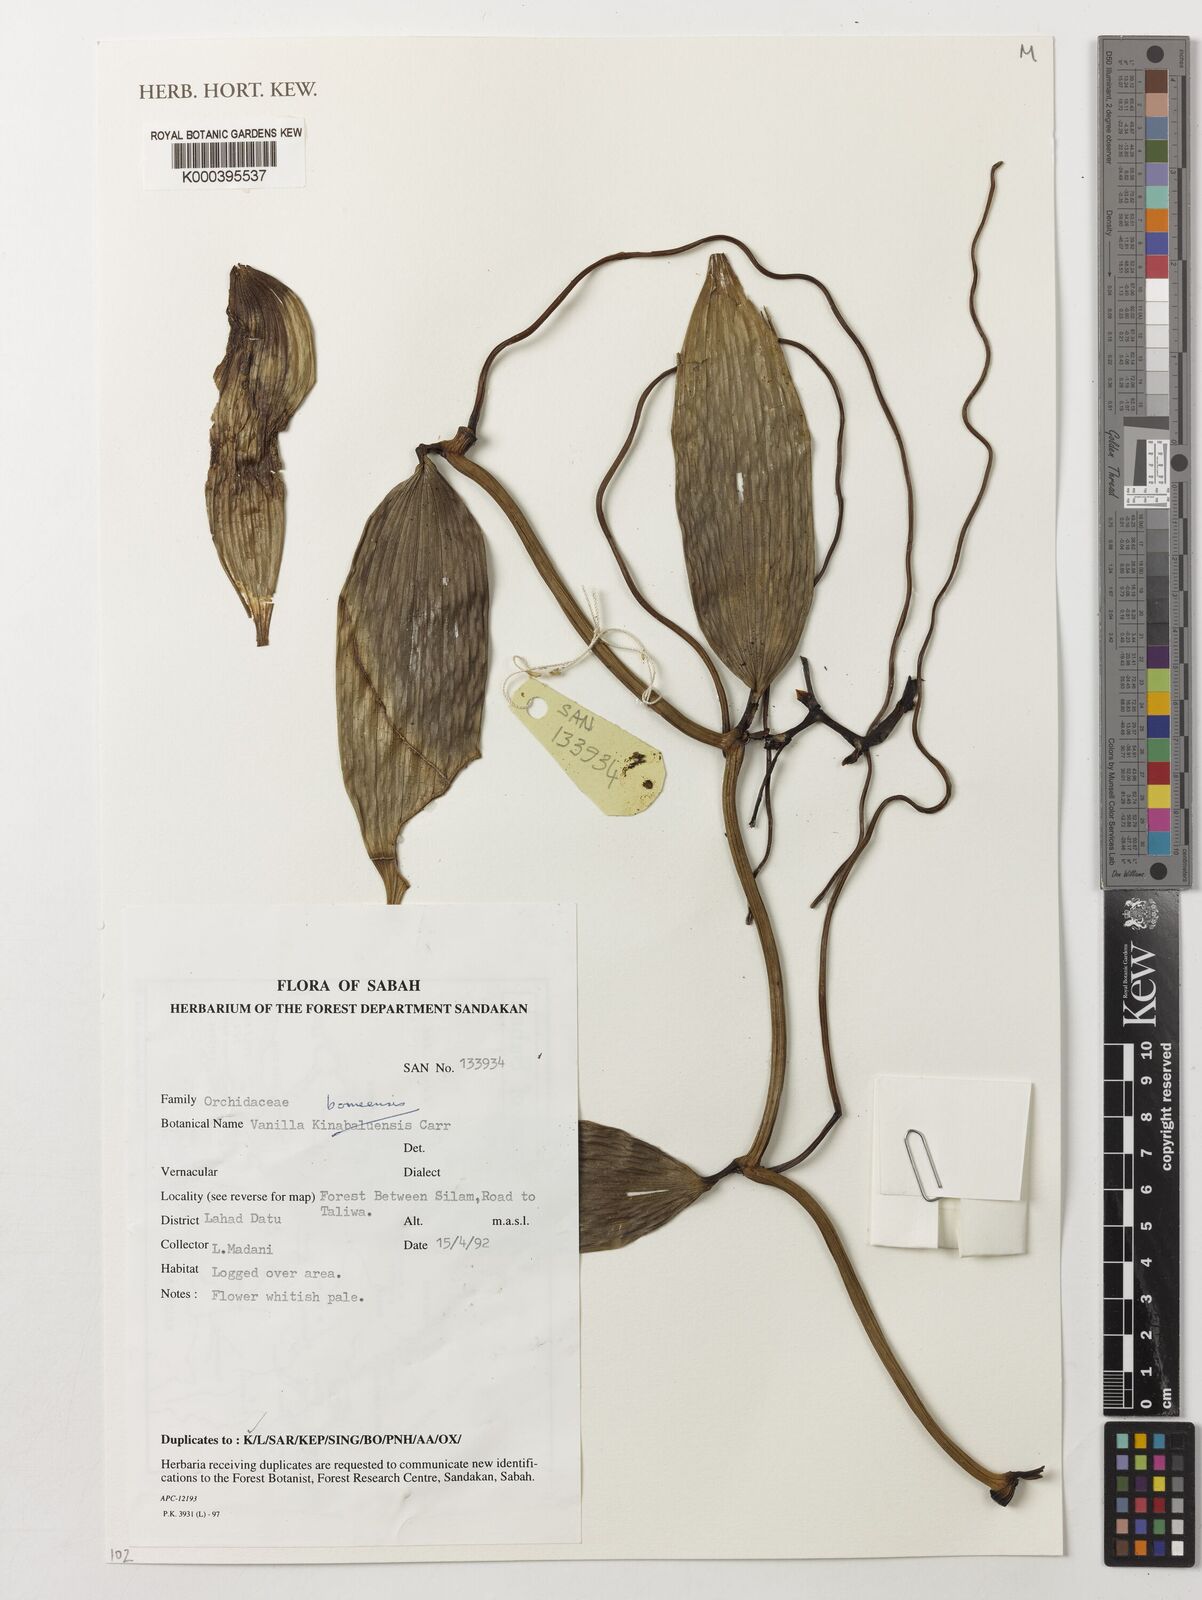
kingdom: Plantae
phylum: Tracheophyta
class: Liliopsida
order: Asparagales
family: Orchidaceae
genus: Vanilla
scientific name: Vanilla kinabaluensis
